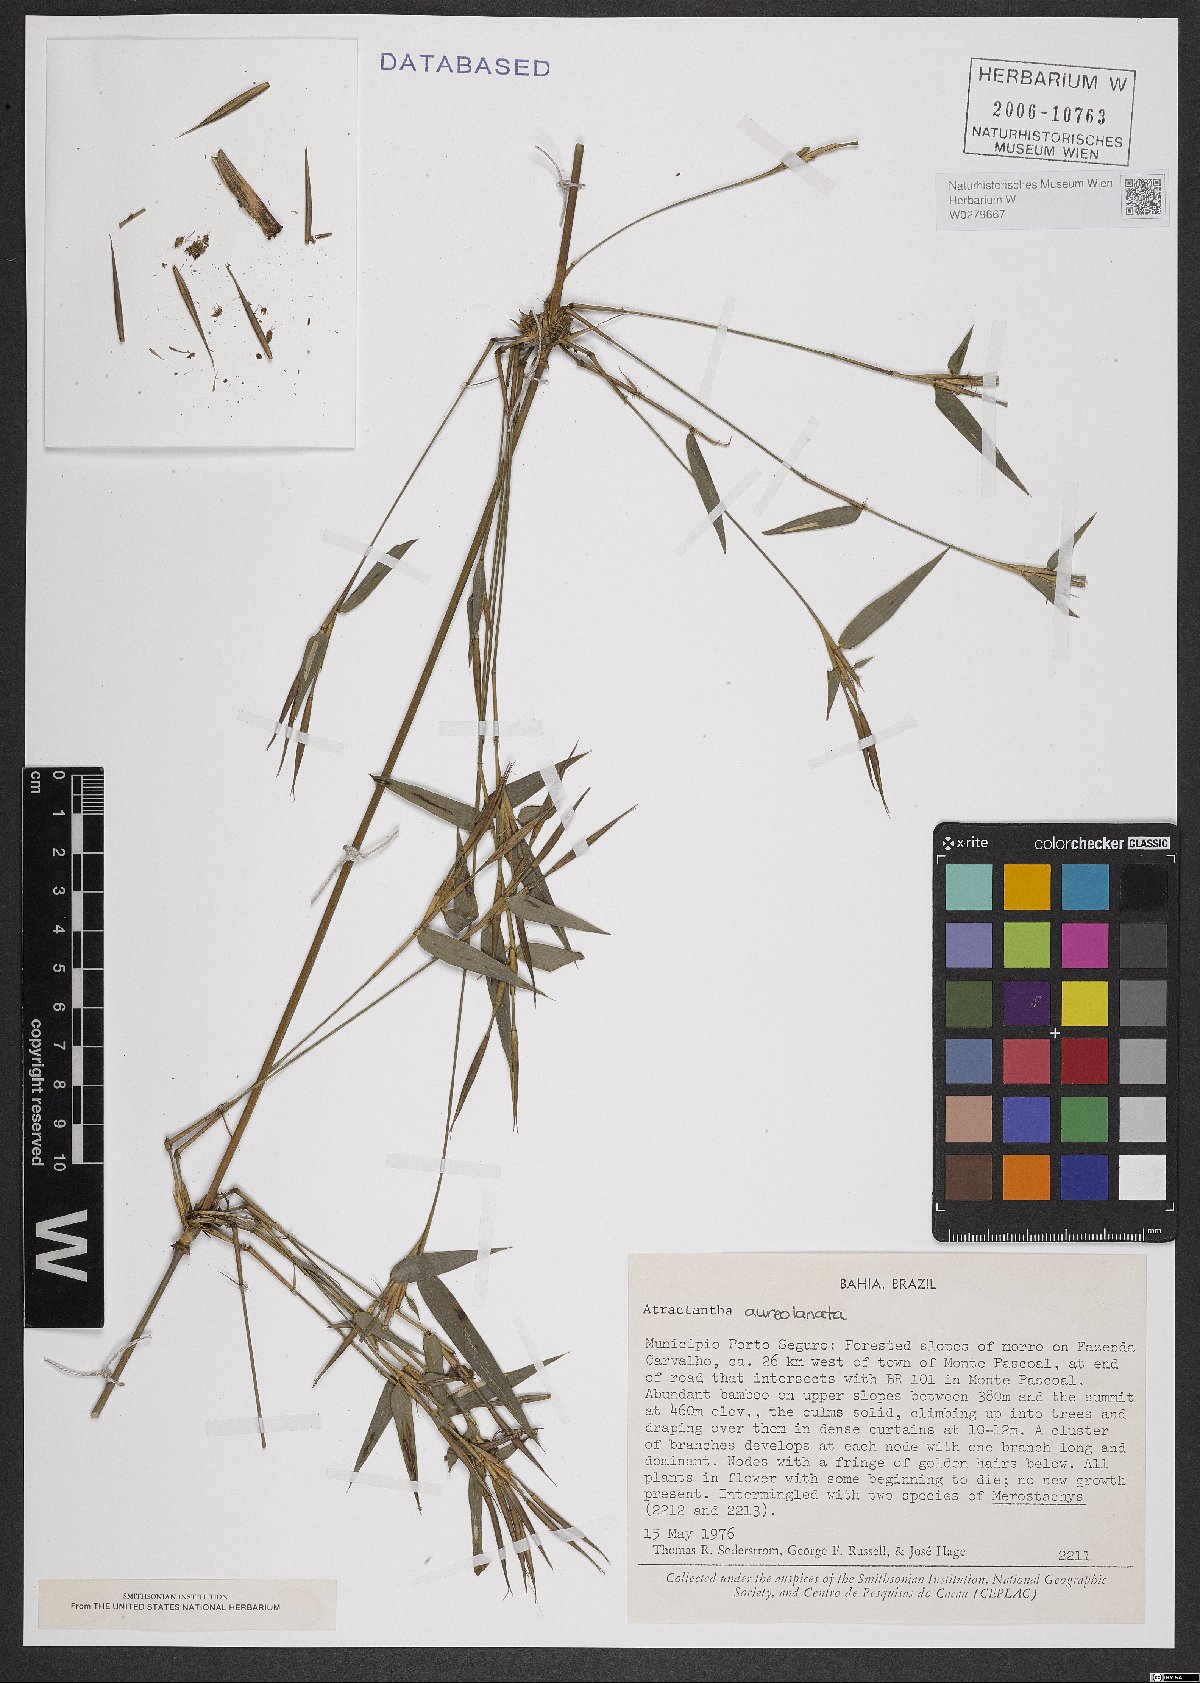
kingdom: Plantae
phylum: Tracheophyta
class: Liliopsida
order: Poales
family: Poaceae
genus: Atractantha
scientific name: Atractantha aureolanata
